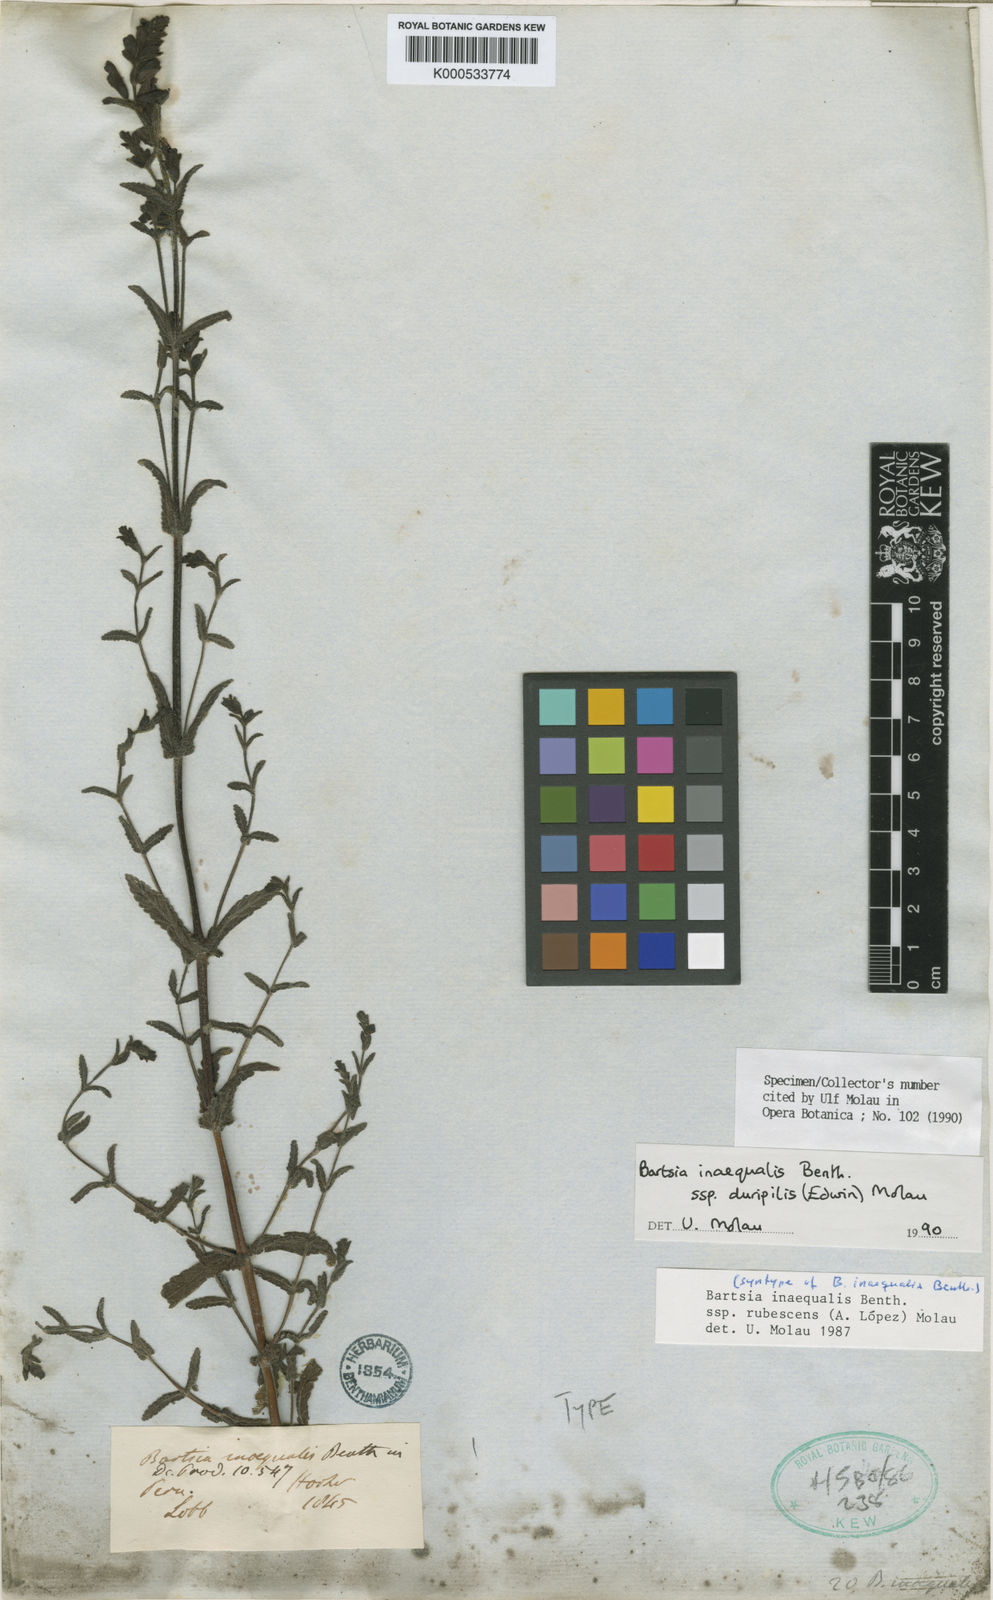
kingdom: Plantae
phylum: Tracheophyta
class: Magnoliopsida
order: Lamiales
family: Orobanchaceae
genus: Neobartsia
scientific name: Neobartsia inaequalis
